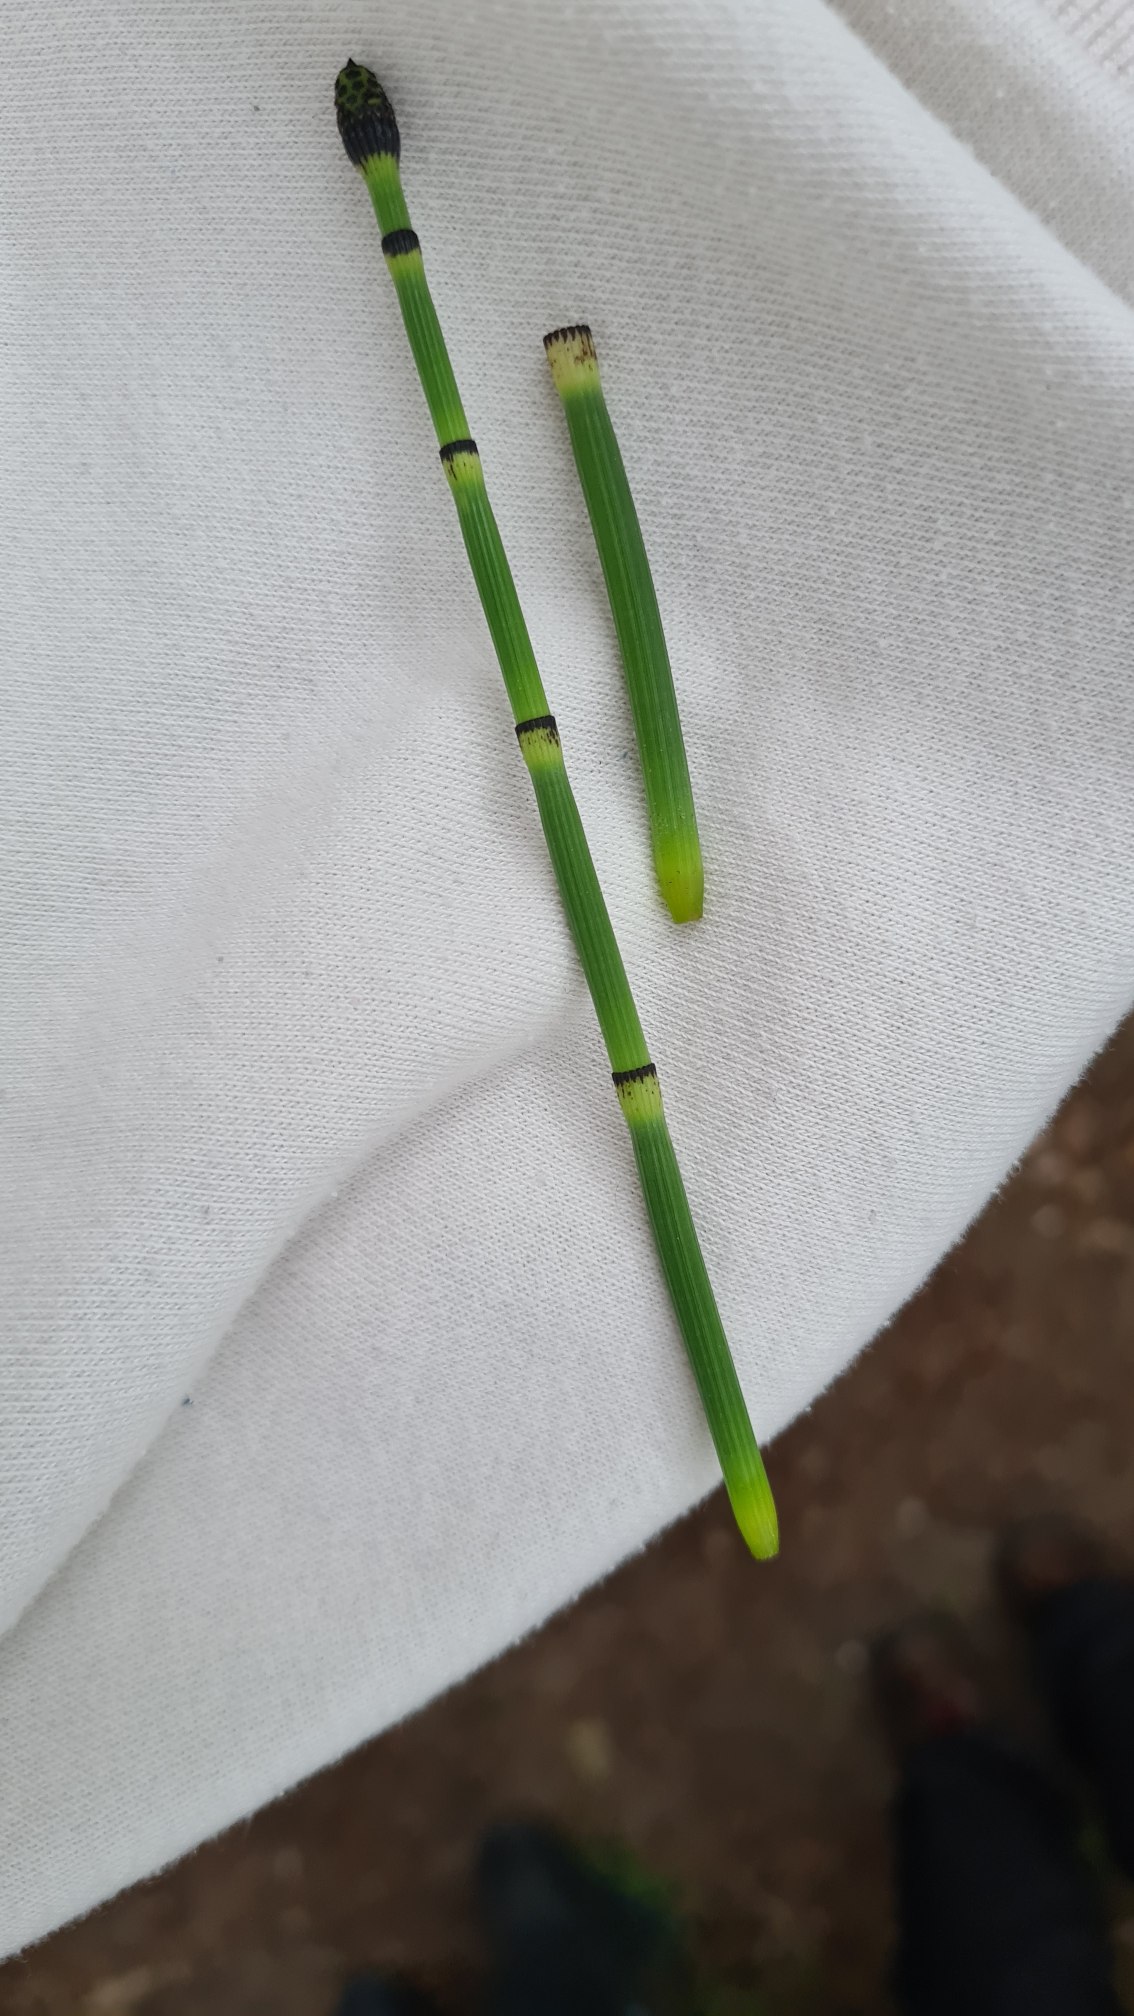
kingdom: Plantae
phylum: Tracheophyta
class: Polypodiopsida
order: Equisetales
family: Equisetaceae
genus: Equisetum
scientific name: Equisetum hyemale
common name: Skavgræs
